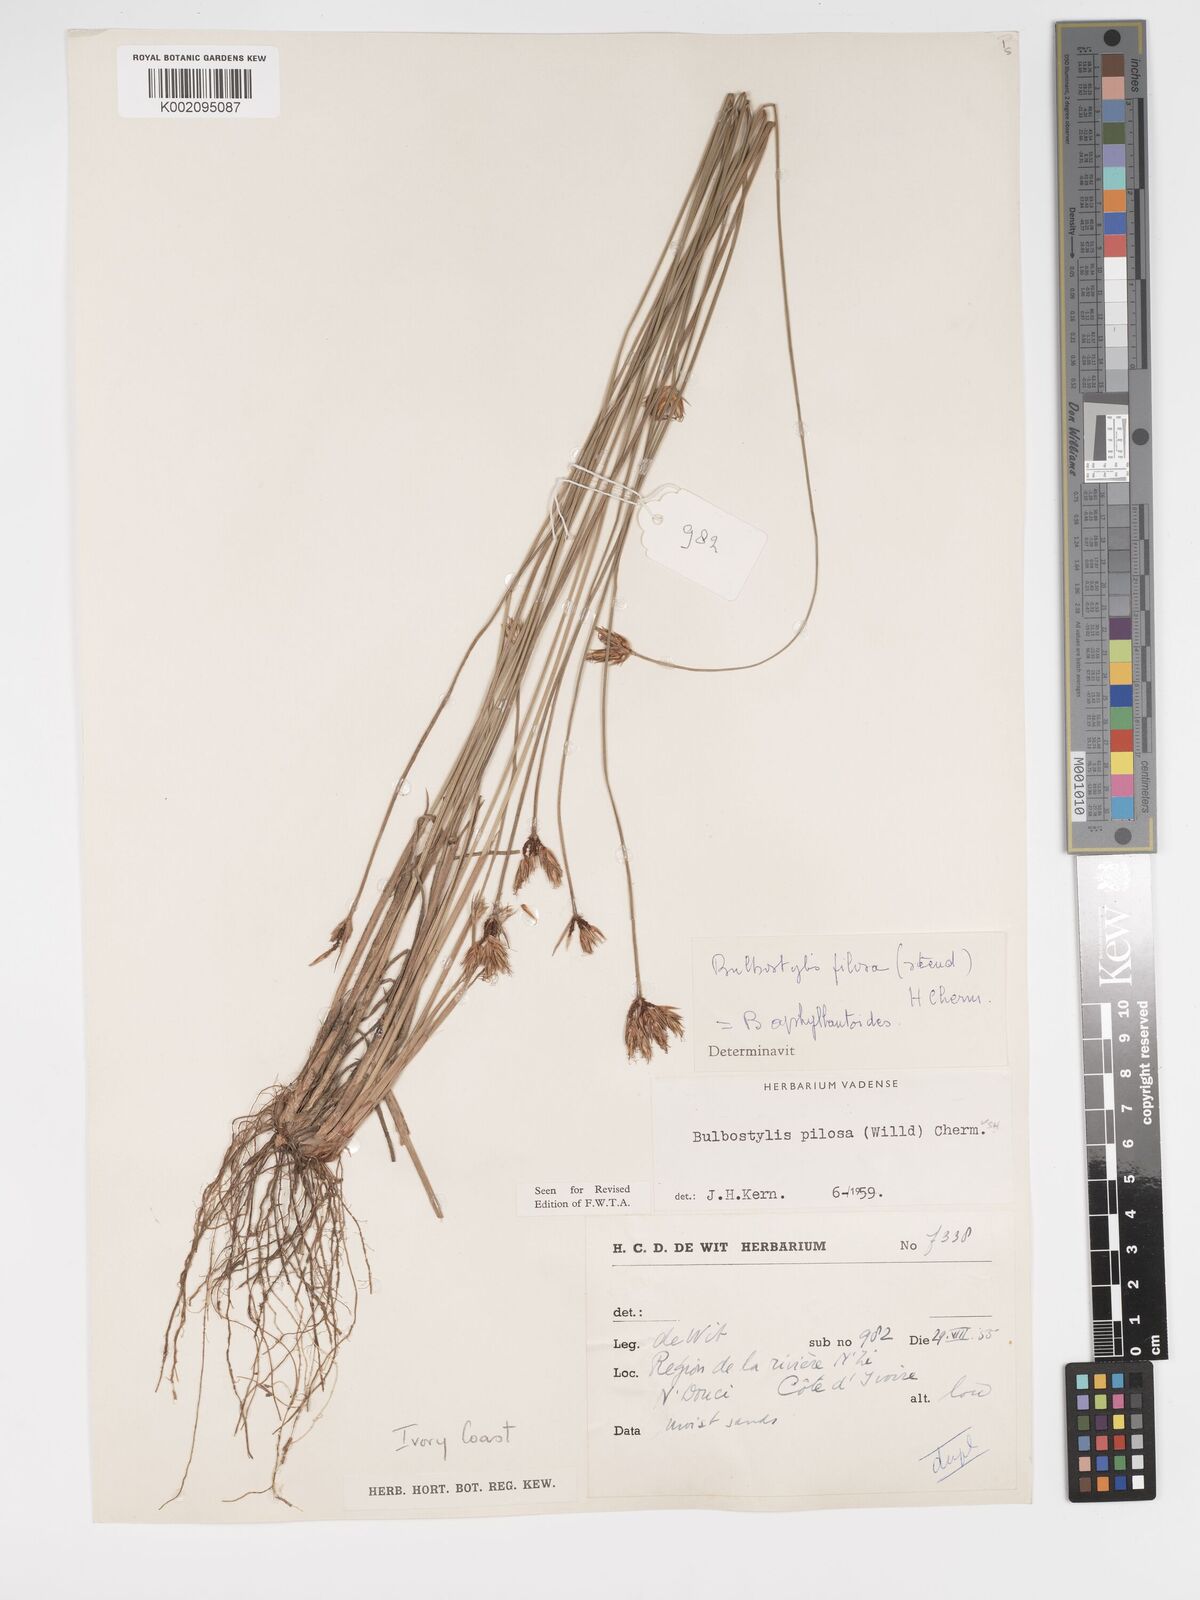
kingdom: Plantae
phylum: Tracheophyta
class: Liliopsida
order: Poales
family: Cyperaceae
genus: Bulbostylis
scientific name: Bulbostylis pilosa
